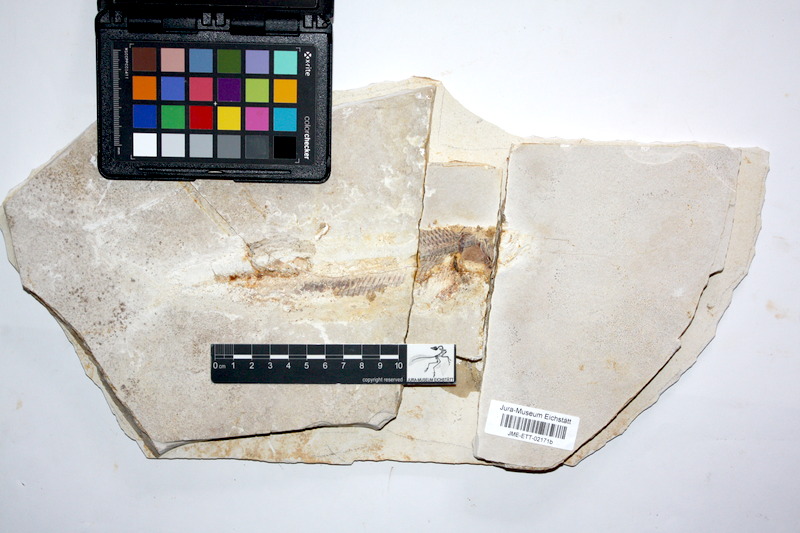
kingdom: Animalia
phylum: Chordata
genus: Thrissops
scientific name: Thrissops formosus
